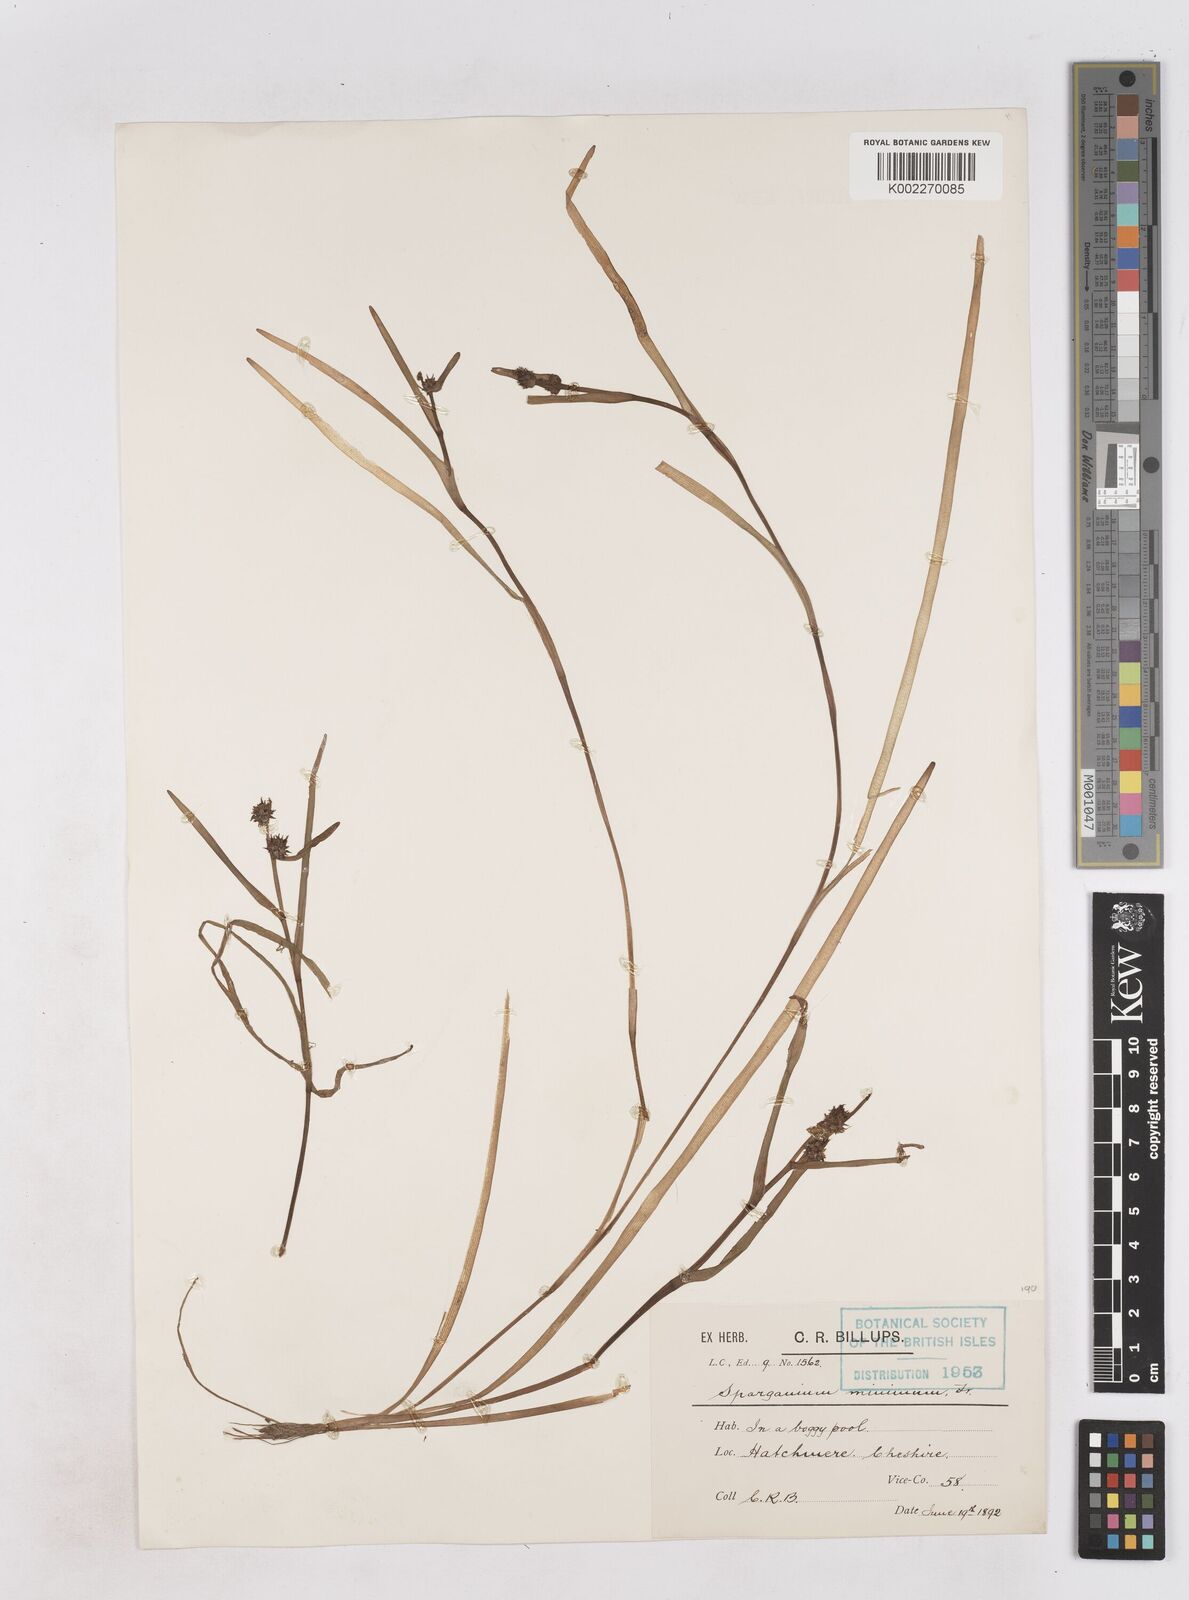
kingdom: Plantae
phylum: Tracheophyta
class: Liliopsida
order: Poales
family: Typhaceae
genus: Sparganium
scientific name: Sparganium natans
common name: Least bur-reed
